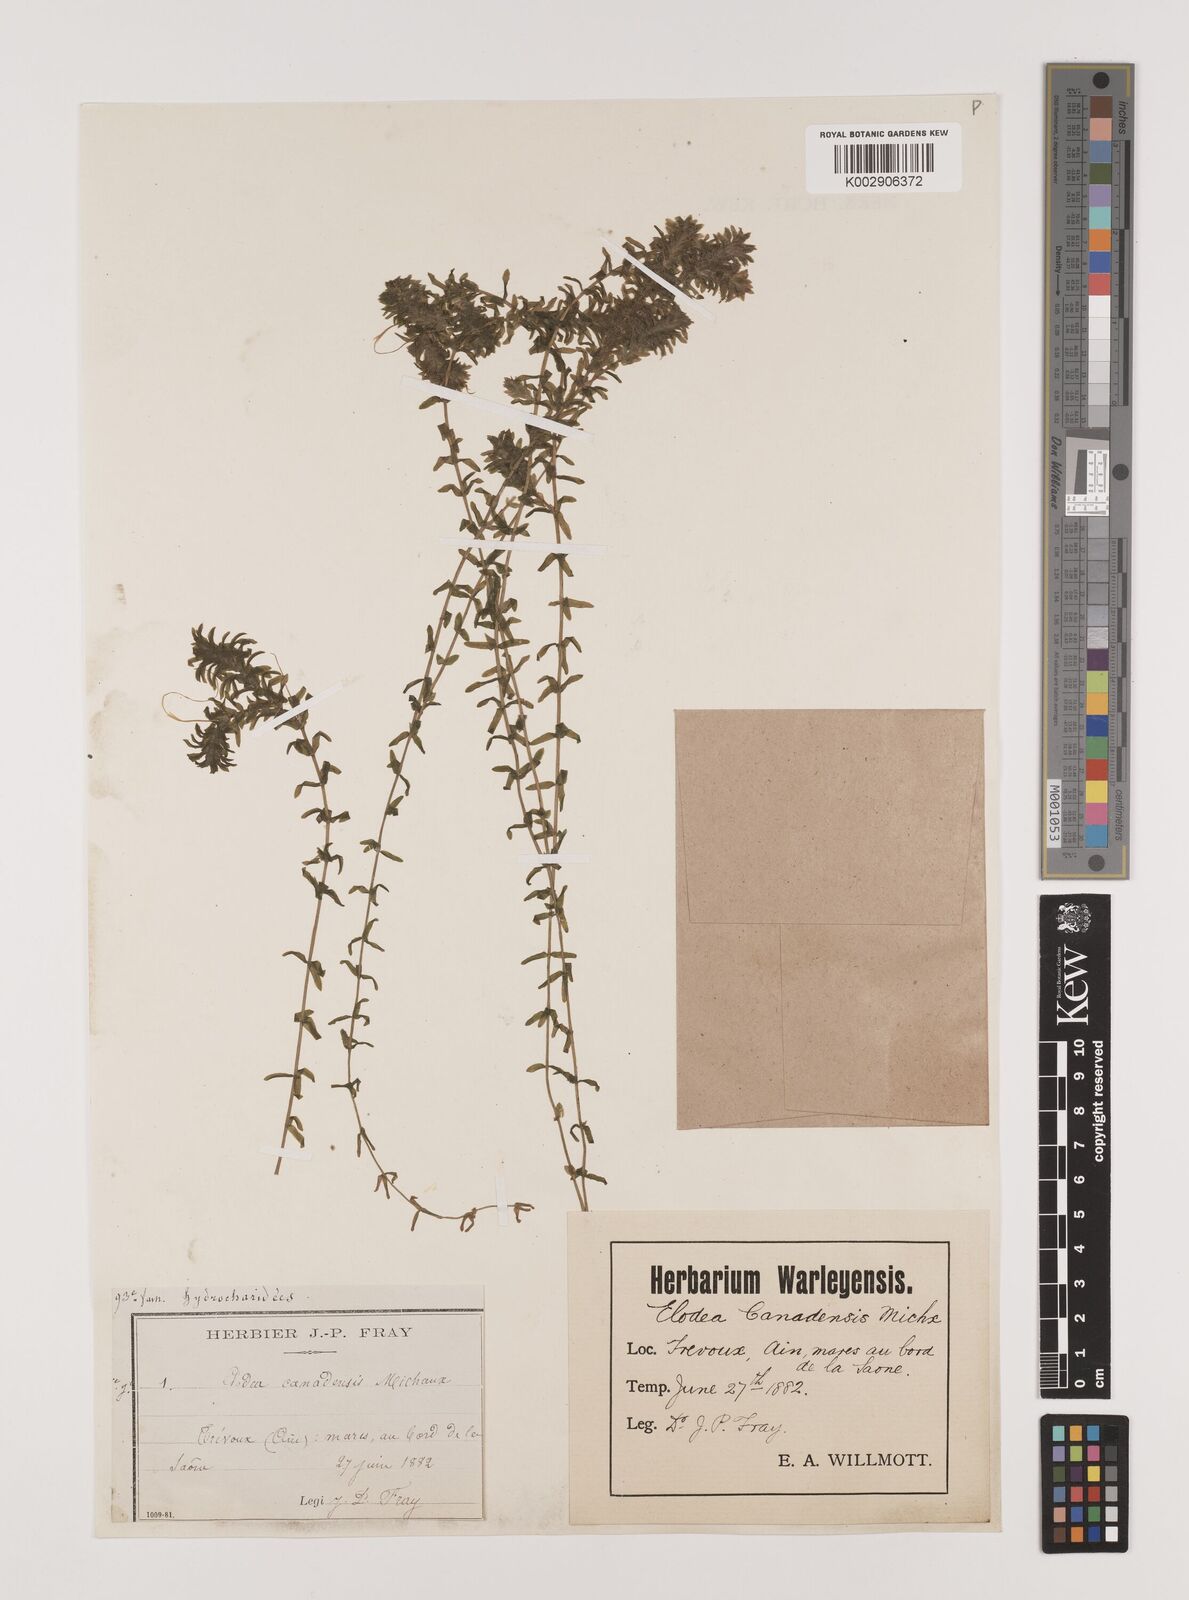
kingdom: Plantae
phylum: Tracheophyta
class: Liliopsida
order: Alismatales
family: Hydrocharitaceae
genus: Elodea
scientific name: Elodea canadensis
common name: Canadian waterweed
